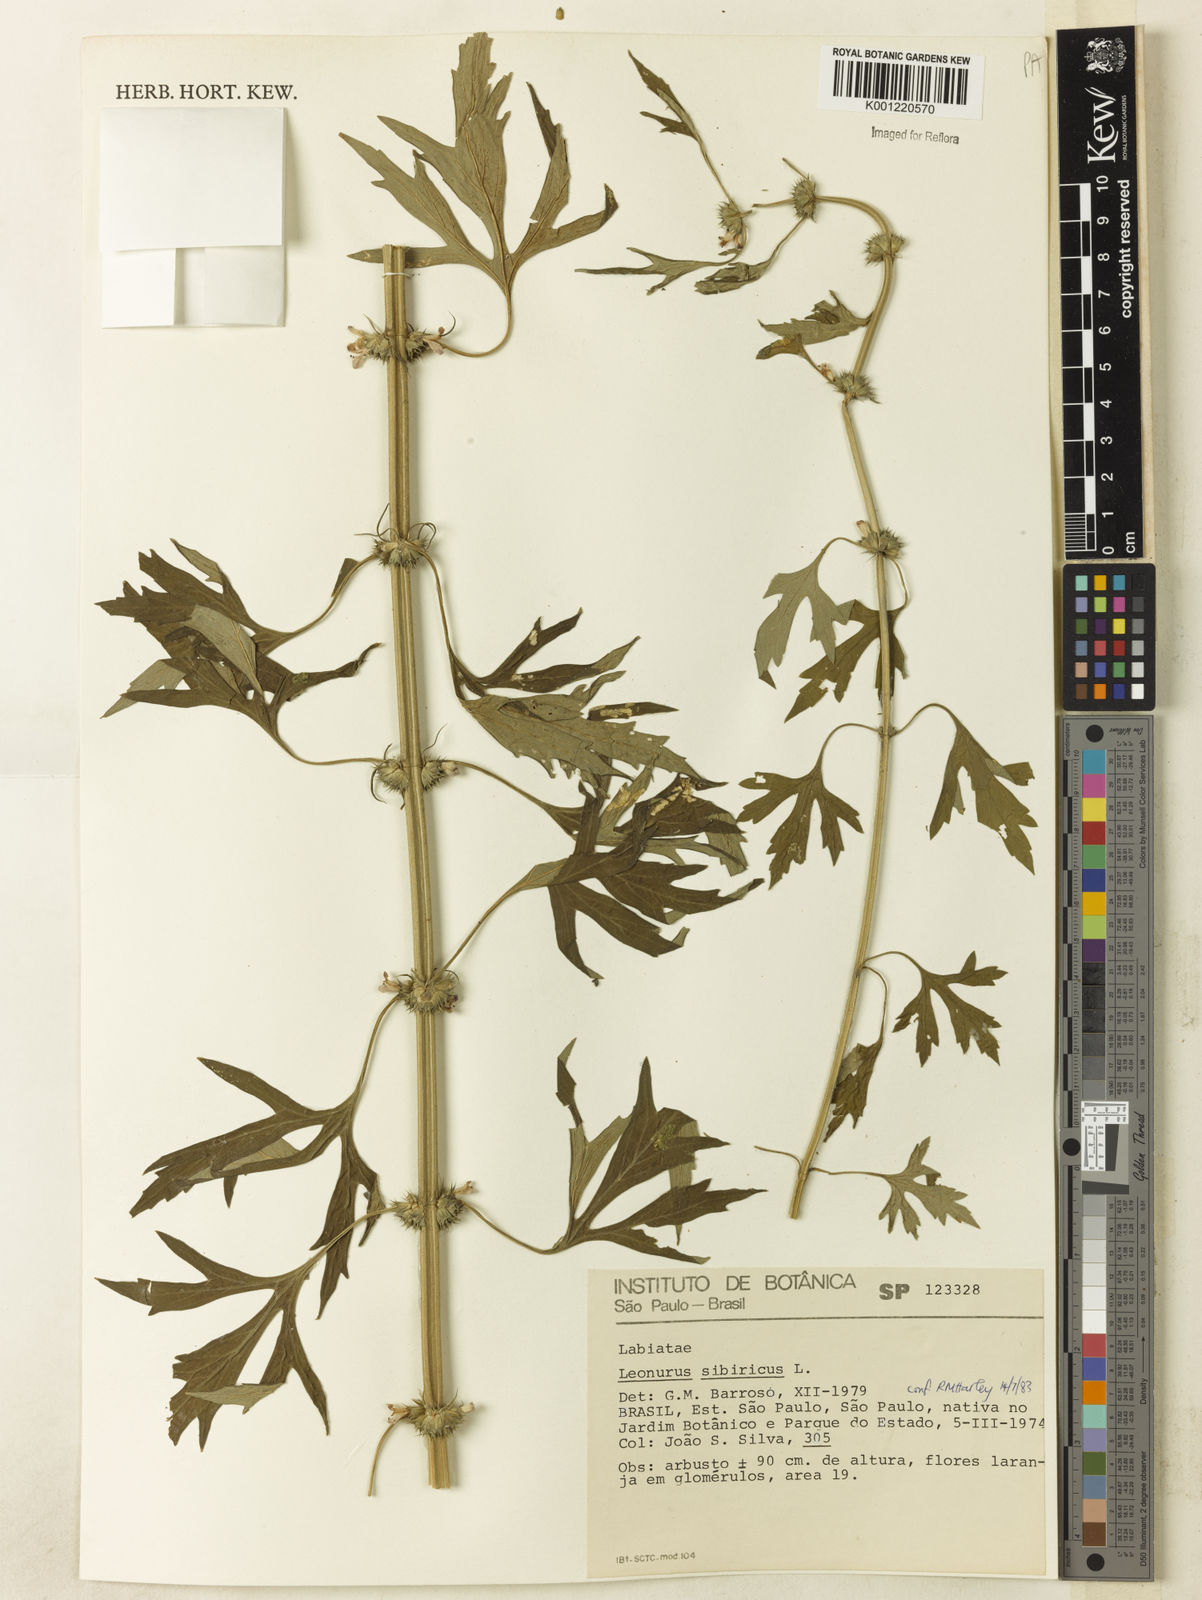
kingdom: Plantae
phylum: Tracheophyta
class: Magnoliopsida
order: Lamiales
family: Lamiaceae
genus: Leonurus
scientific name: Leonurus japonicus
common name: Honeyweed
